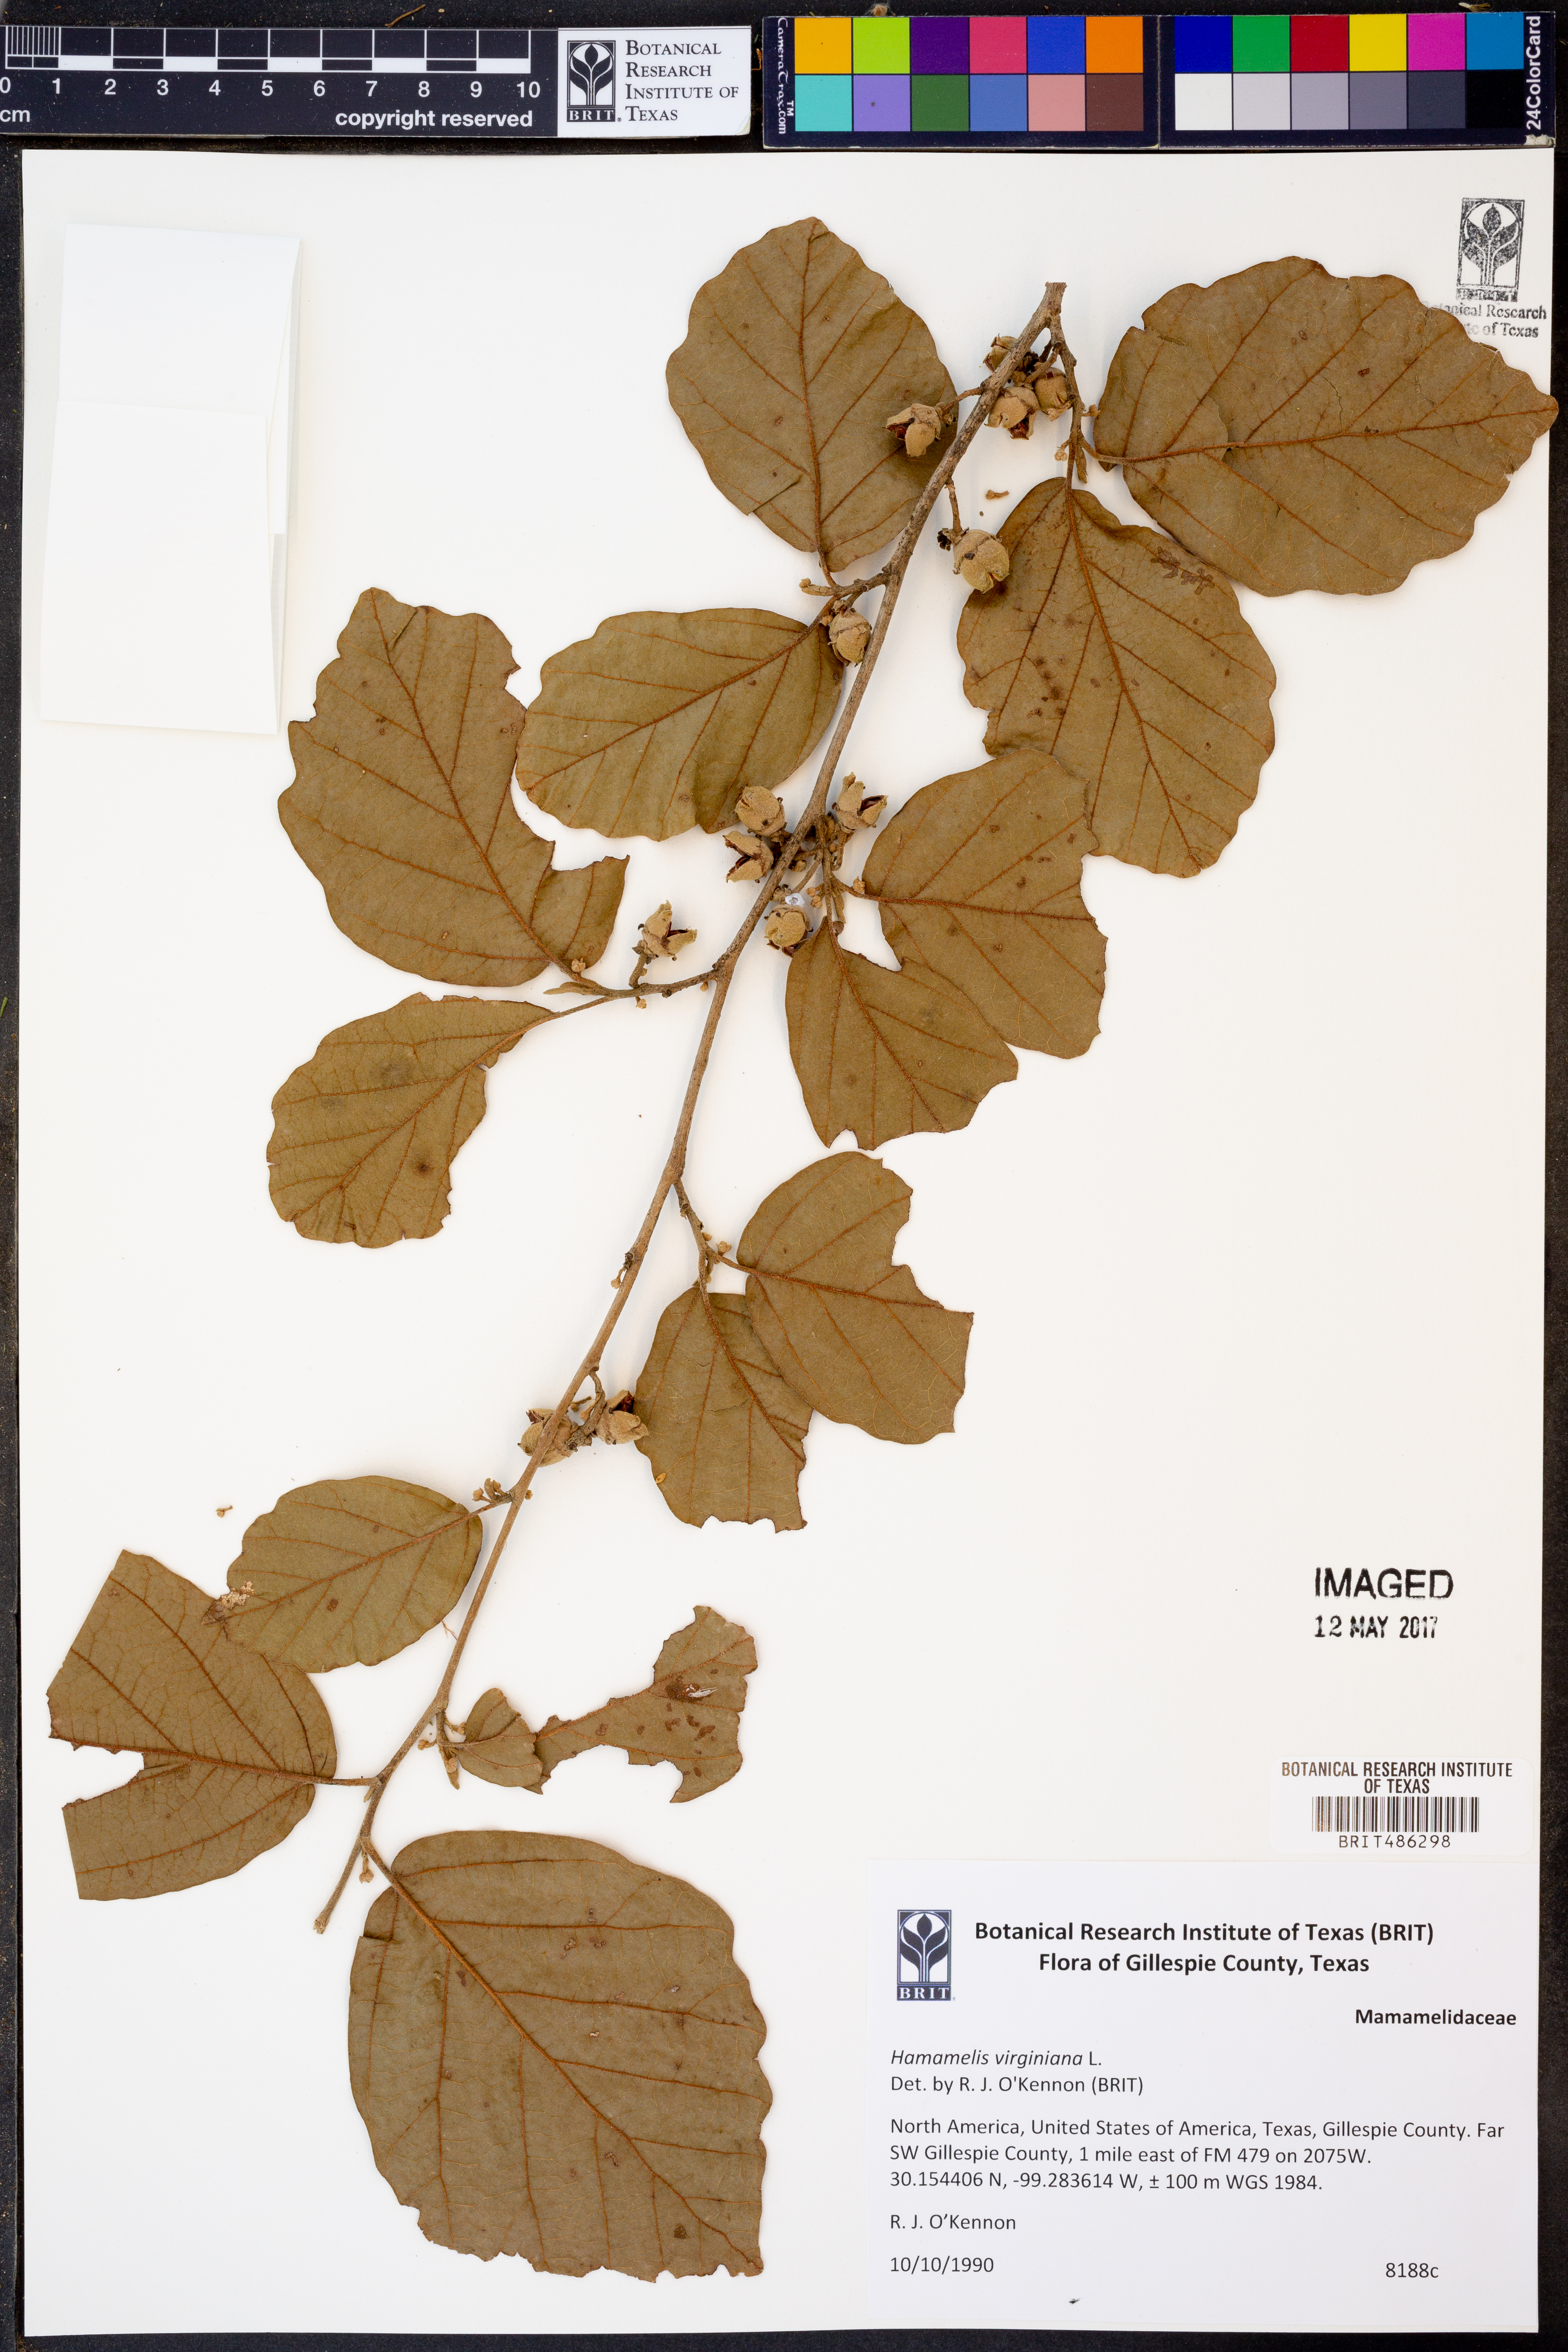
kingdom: Plantae
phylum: Tracheophyta
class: Magnoliopsida
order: Saxifragales
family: Hamamelidaceae
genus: Hamamelis
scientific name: Hamamelis virginiana
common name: Witch-hazel
